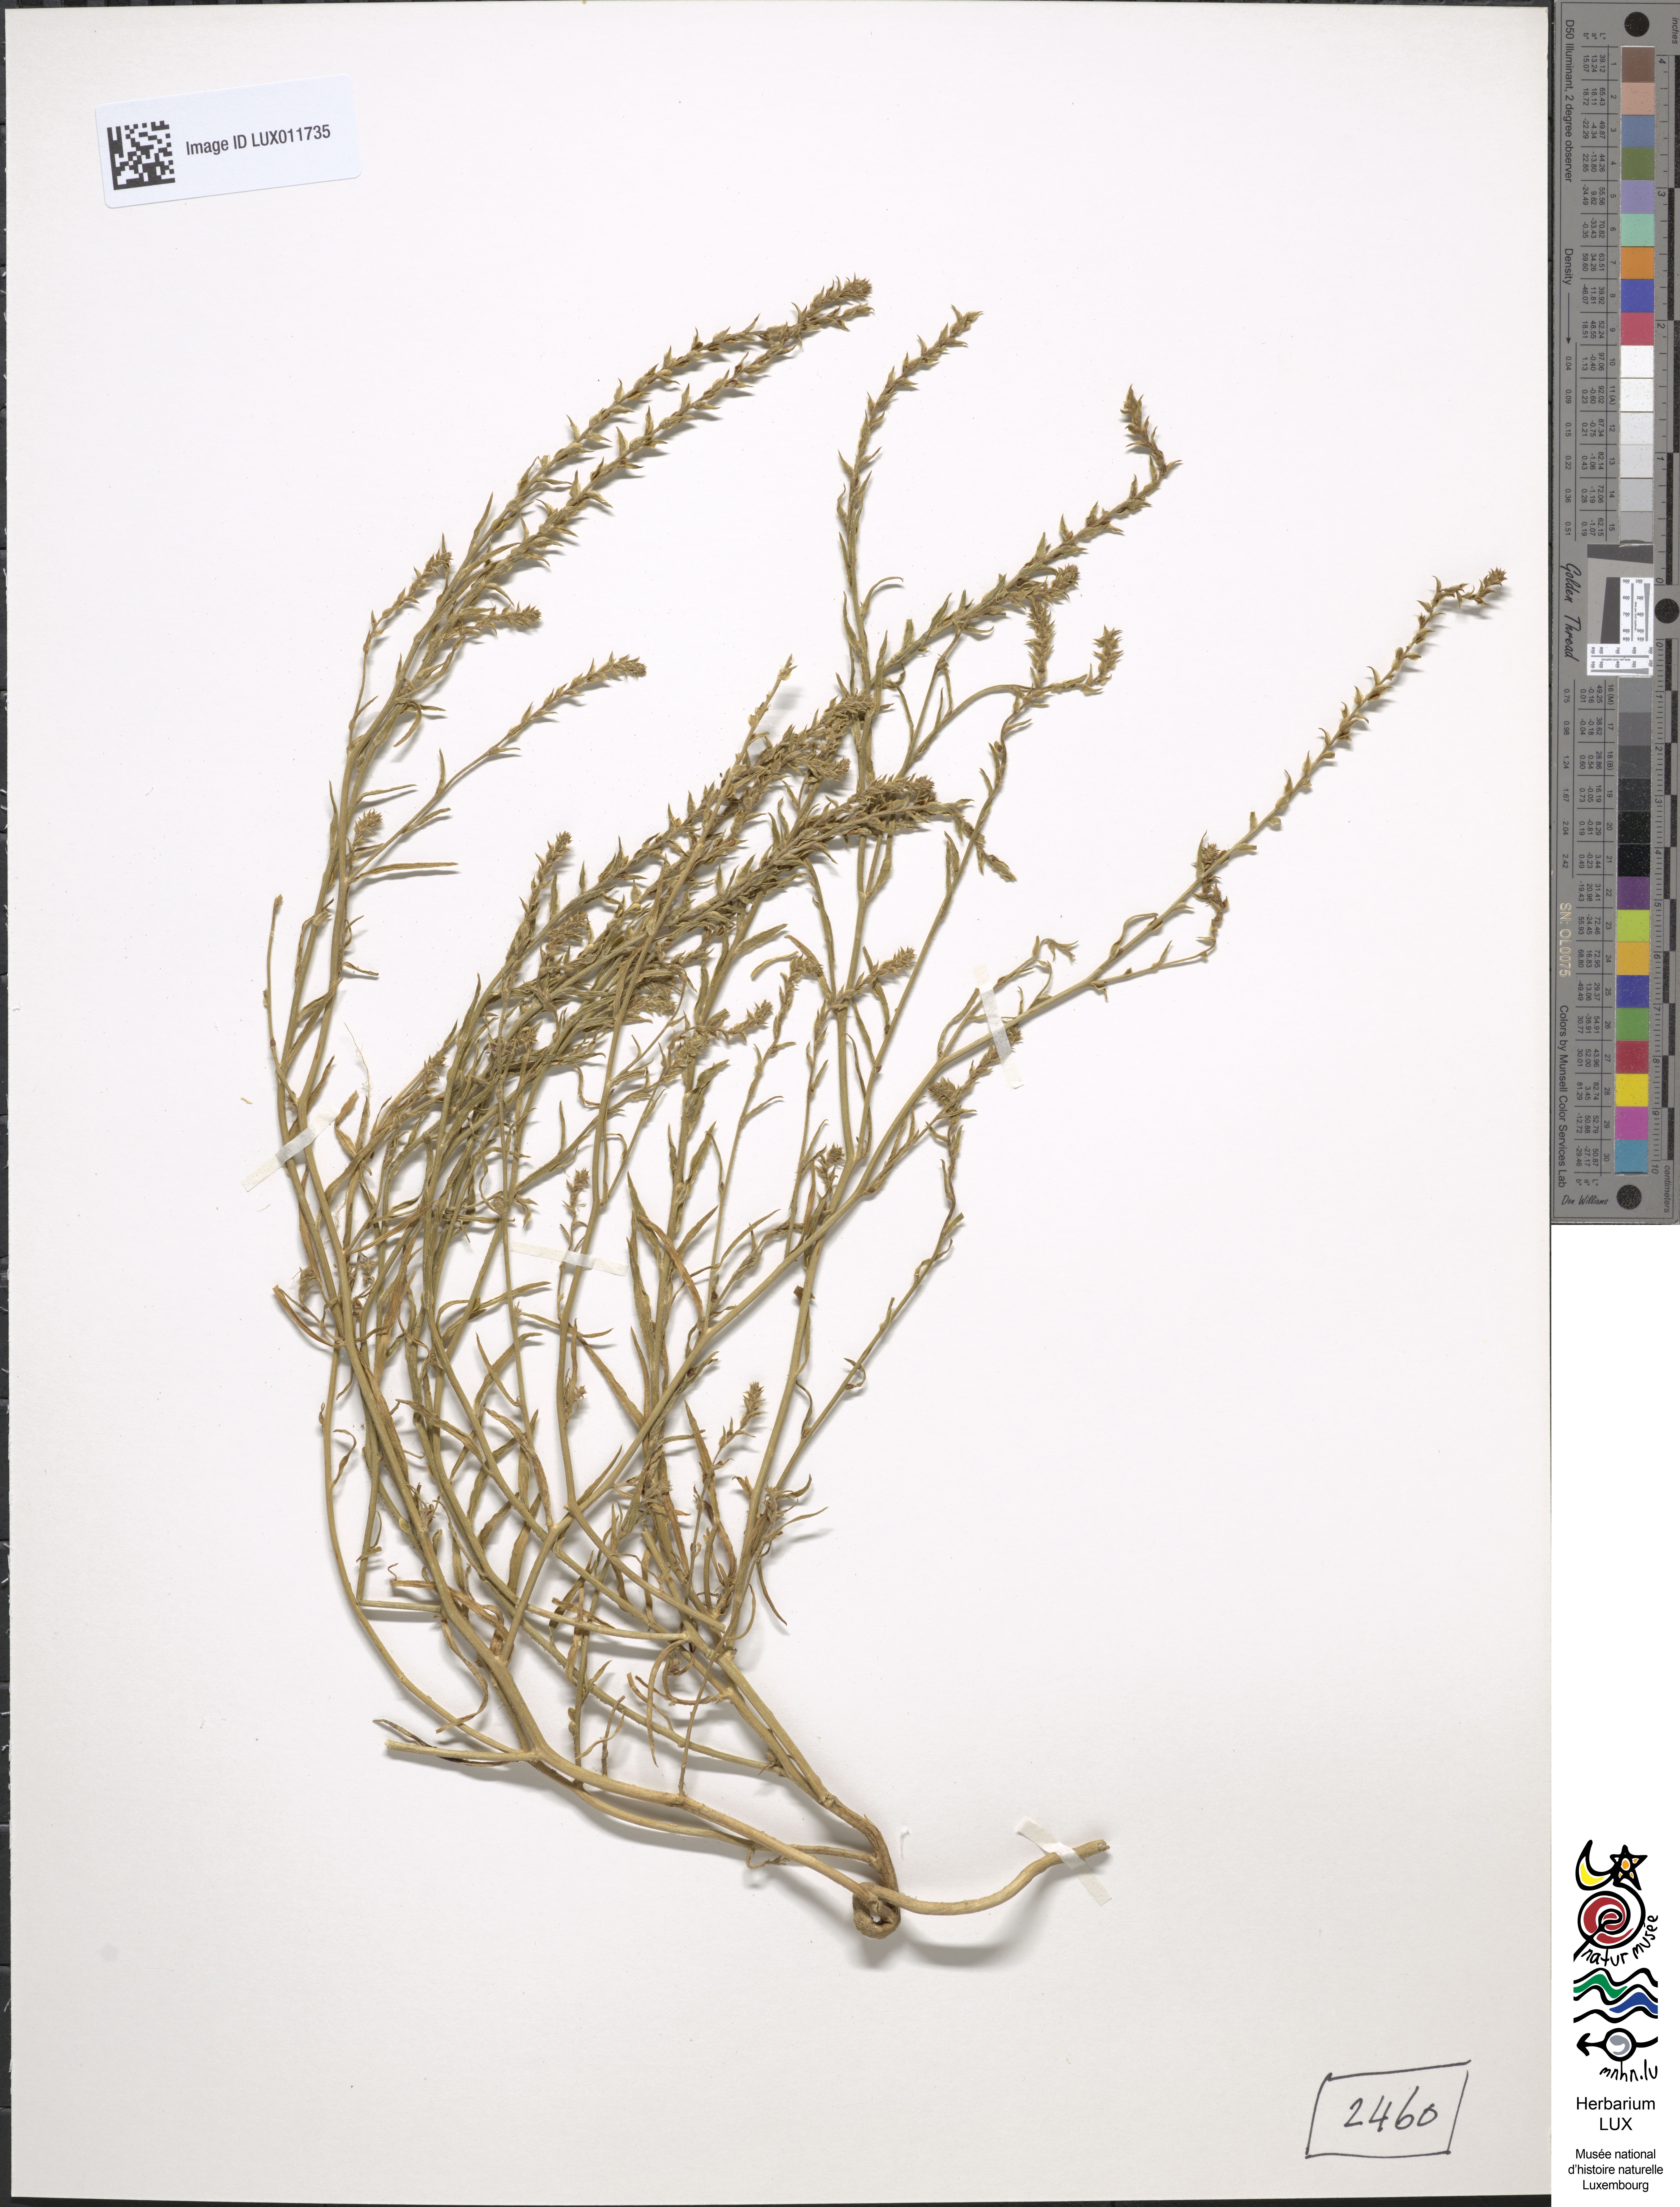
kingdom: Plantae
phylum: Tracheophyta
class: Magnoliopsida
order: Caryophyllales
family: Amaranthaceae
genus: Corispermum
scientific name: Corispermum hyssopifolium
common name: Bugseed
